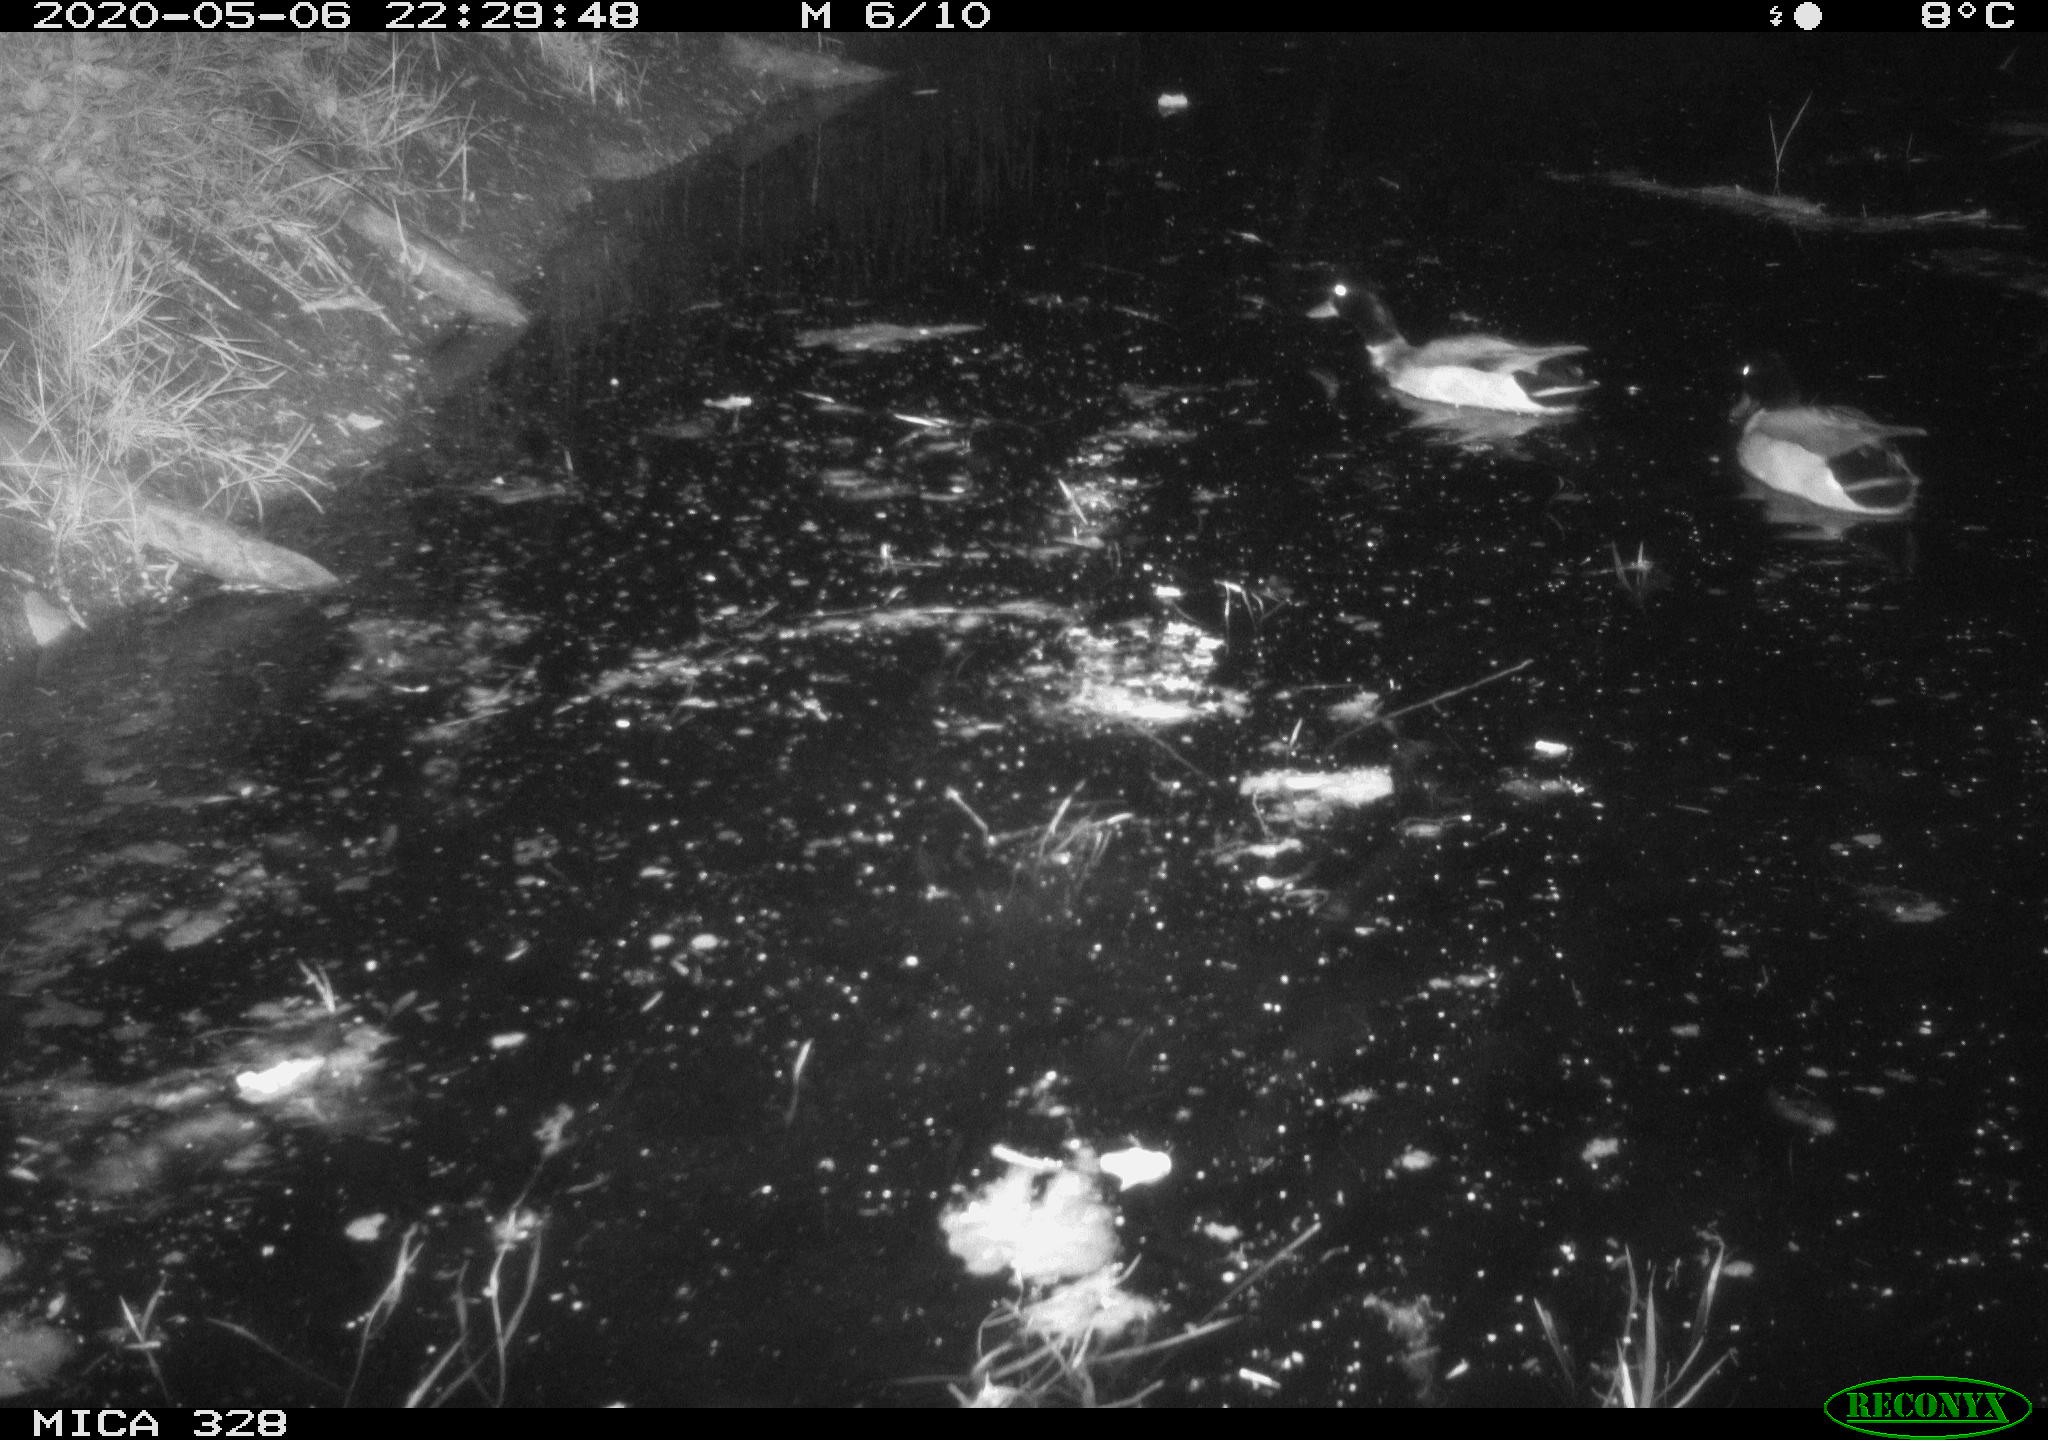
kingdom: Animalia
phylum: Chordata
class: Aves
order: Anseriformes
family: Anatidae
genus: Anas
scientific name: Anas platyrhynchos
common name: Mallard
